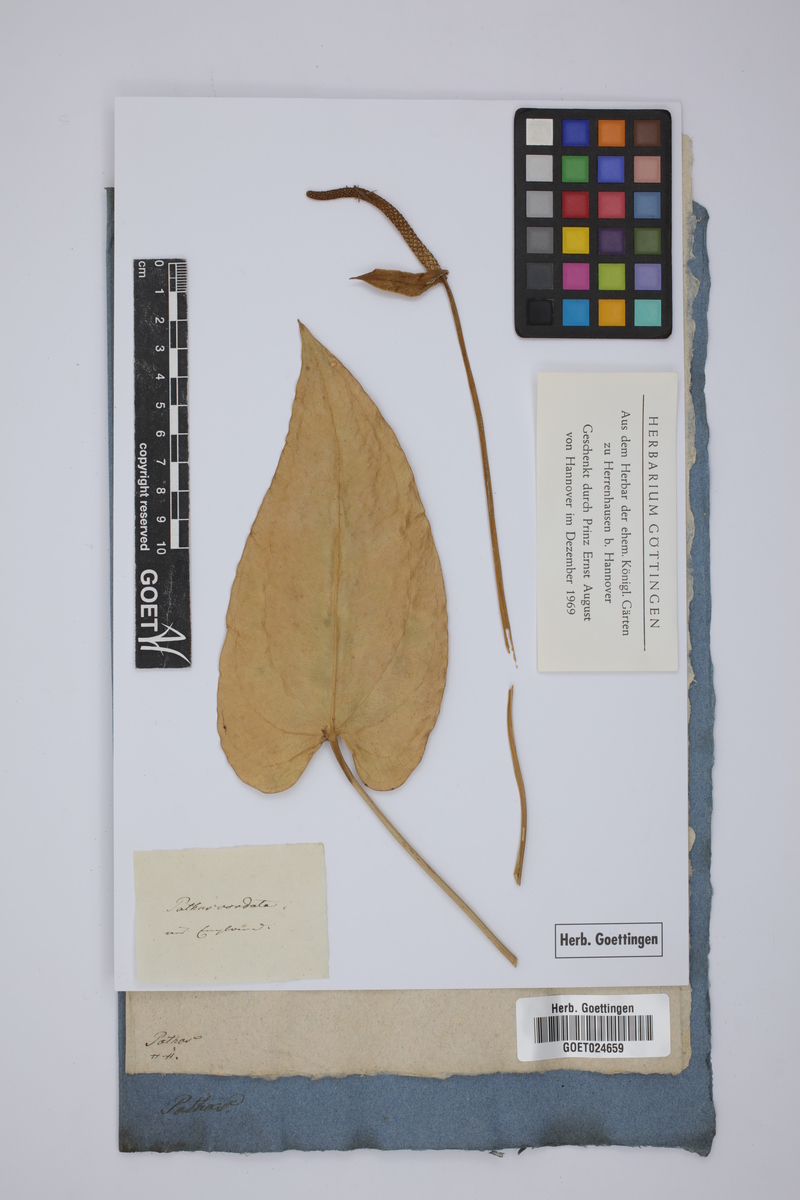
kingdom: Plantae
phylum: Tracheophyta
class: Liliopsida
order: Alismatales
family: Araceae
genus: Anthurium
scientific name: Anthurium cordatum
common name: Monkey tail
